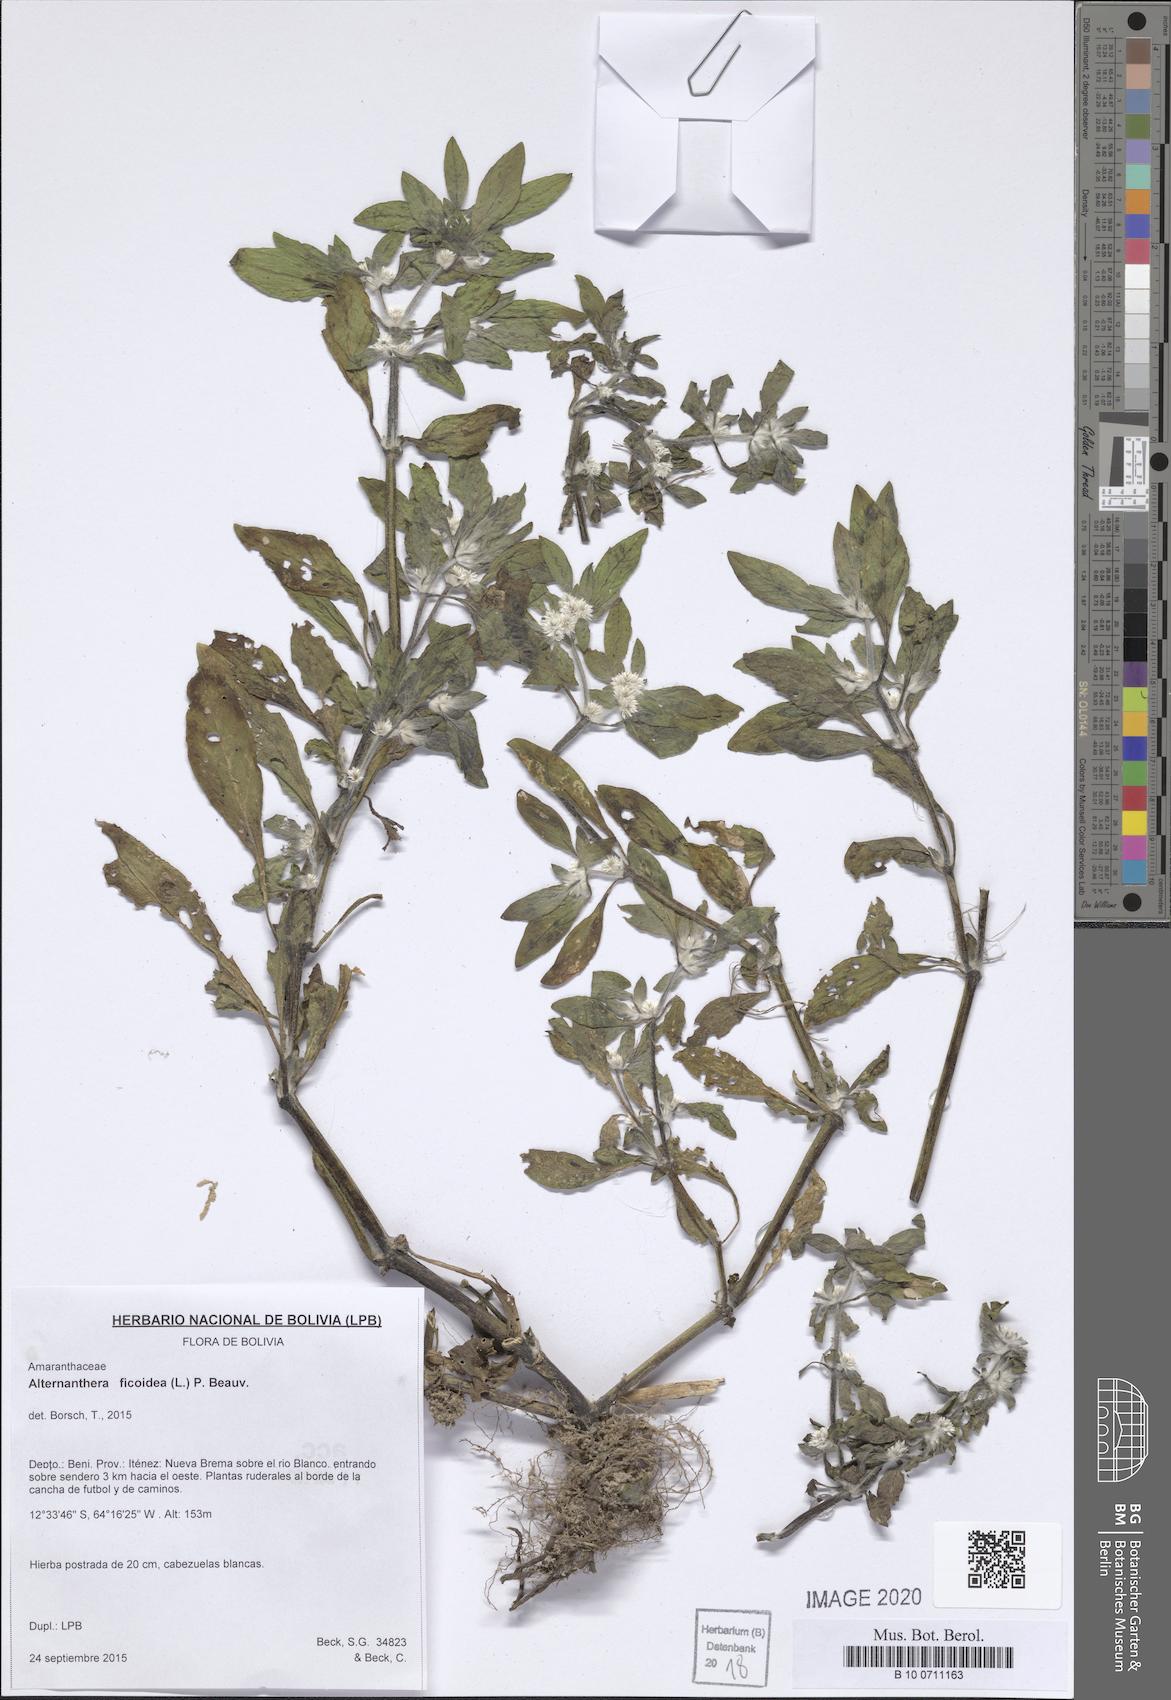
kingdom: Plantae
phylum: Tracheophyta
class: Magnoliopsida
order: Caryophyllales
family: Amaranthaceae
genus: Alternanthera
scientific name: Alternanthera ficoidea
